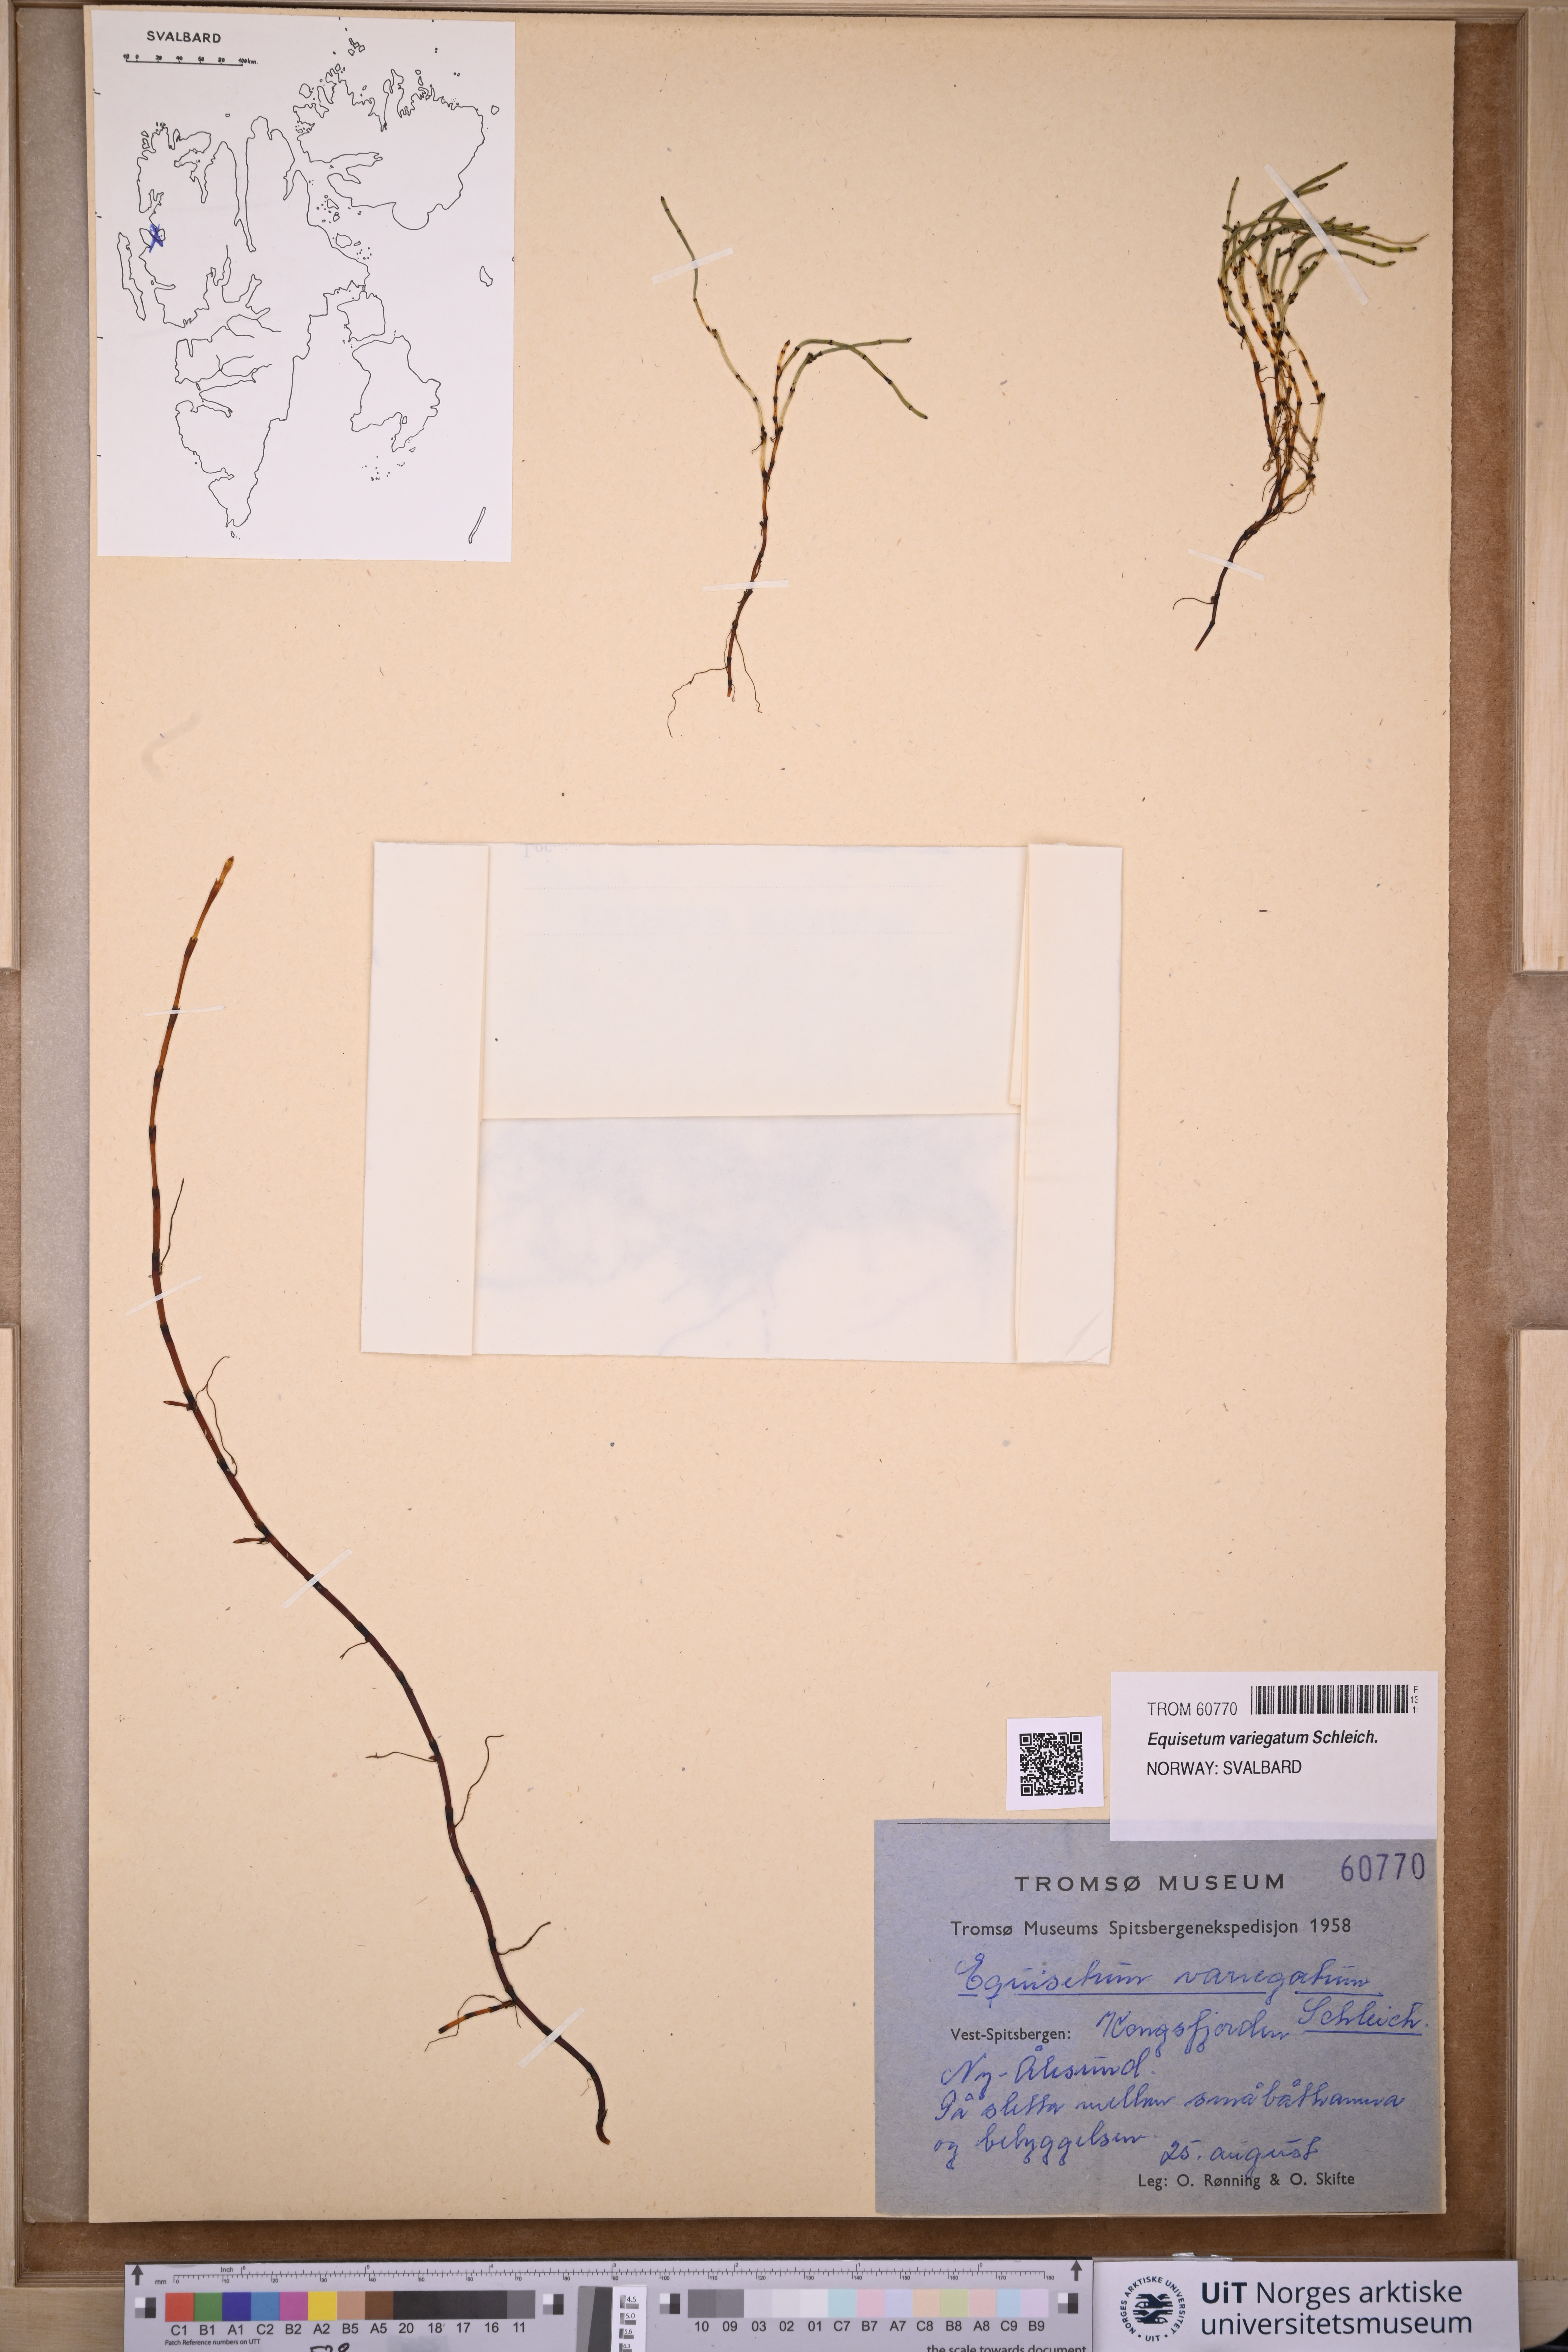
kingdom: Plantae
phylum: Tracheophyta
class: Polypodiopsida
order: Equisetales
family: Equisetaceae
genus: Equisetum
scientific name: Equisetum variegatum
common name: Variegated horsetail
